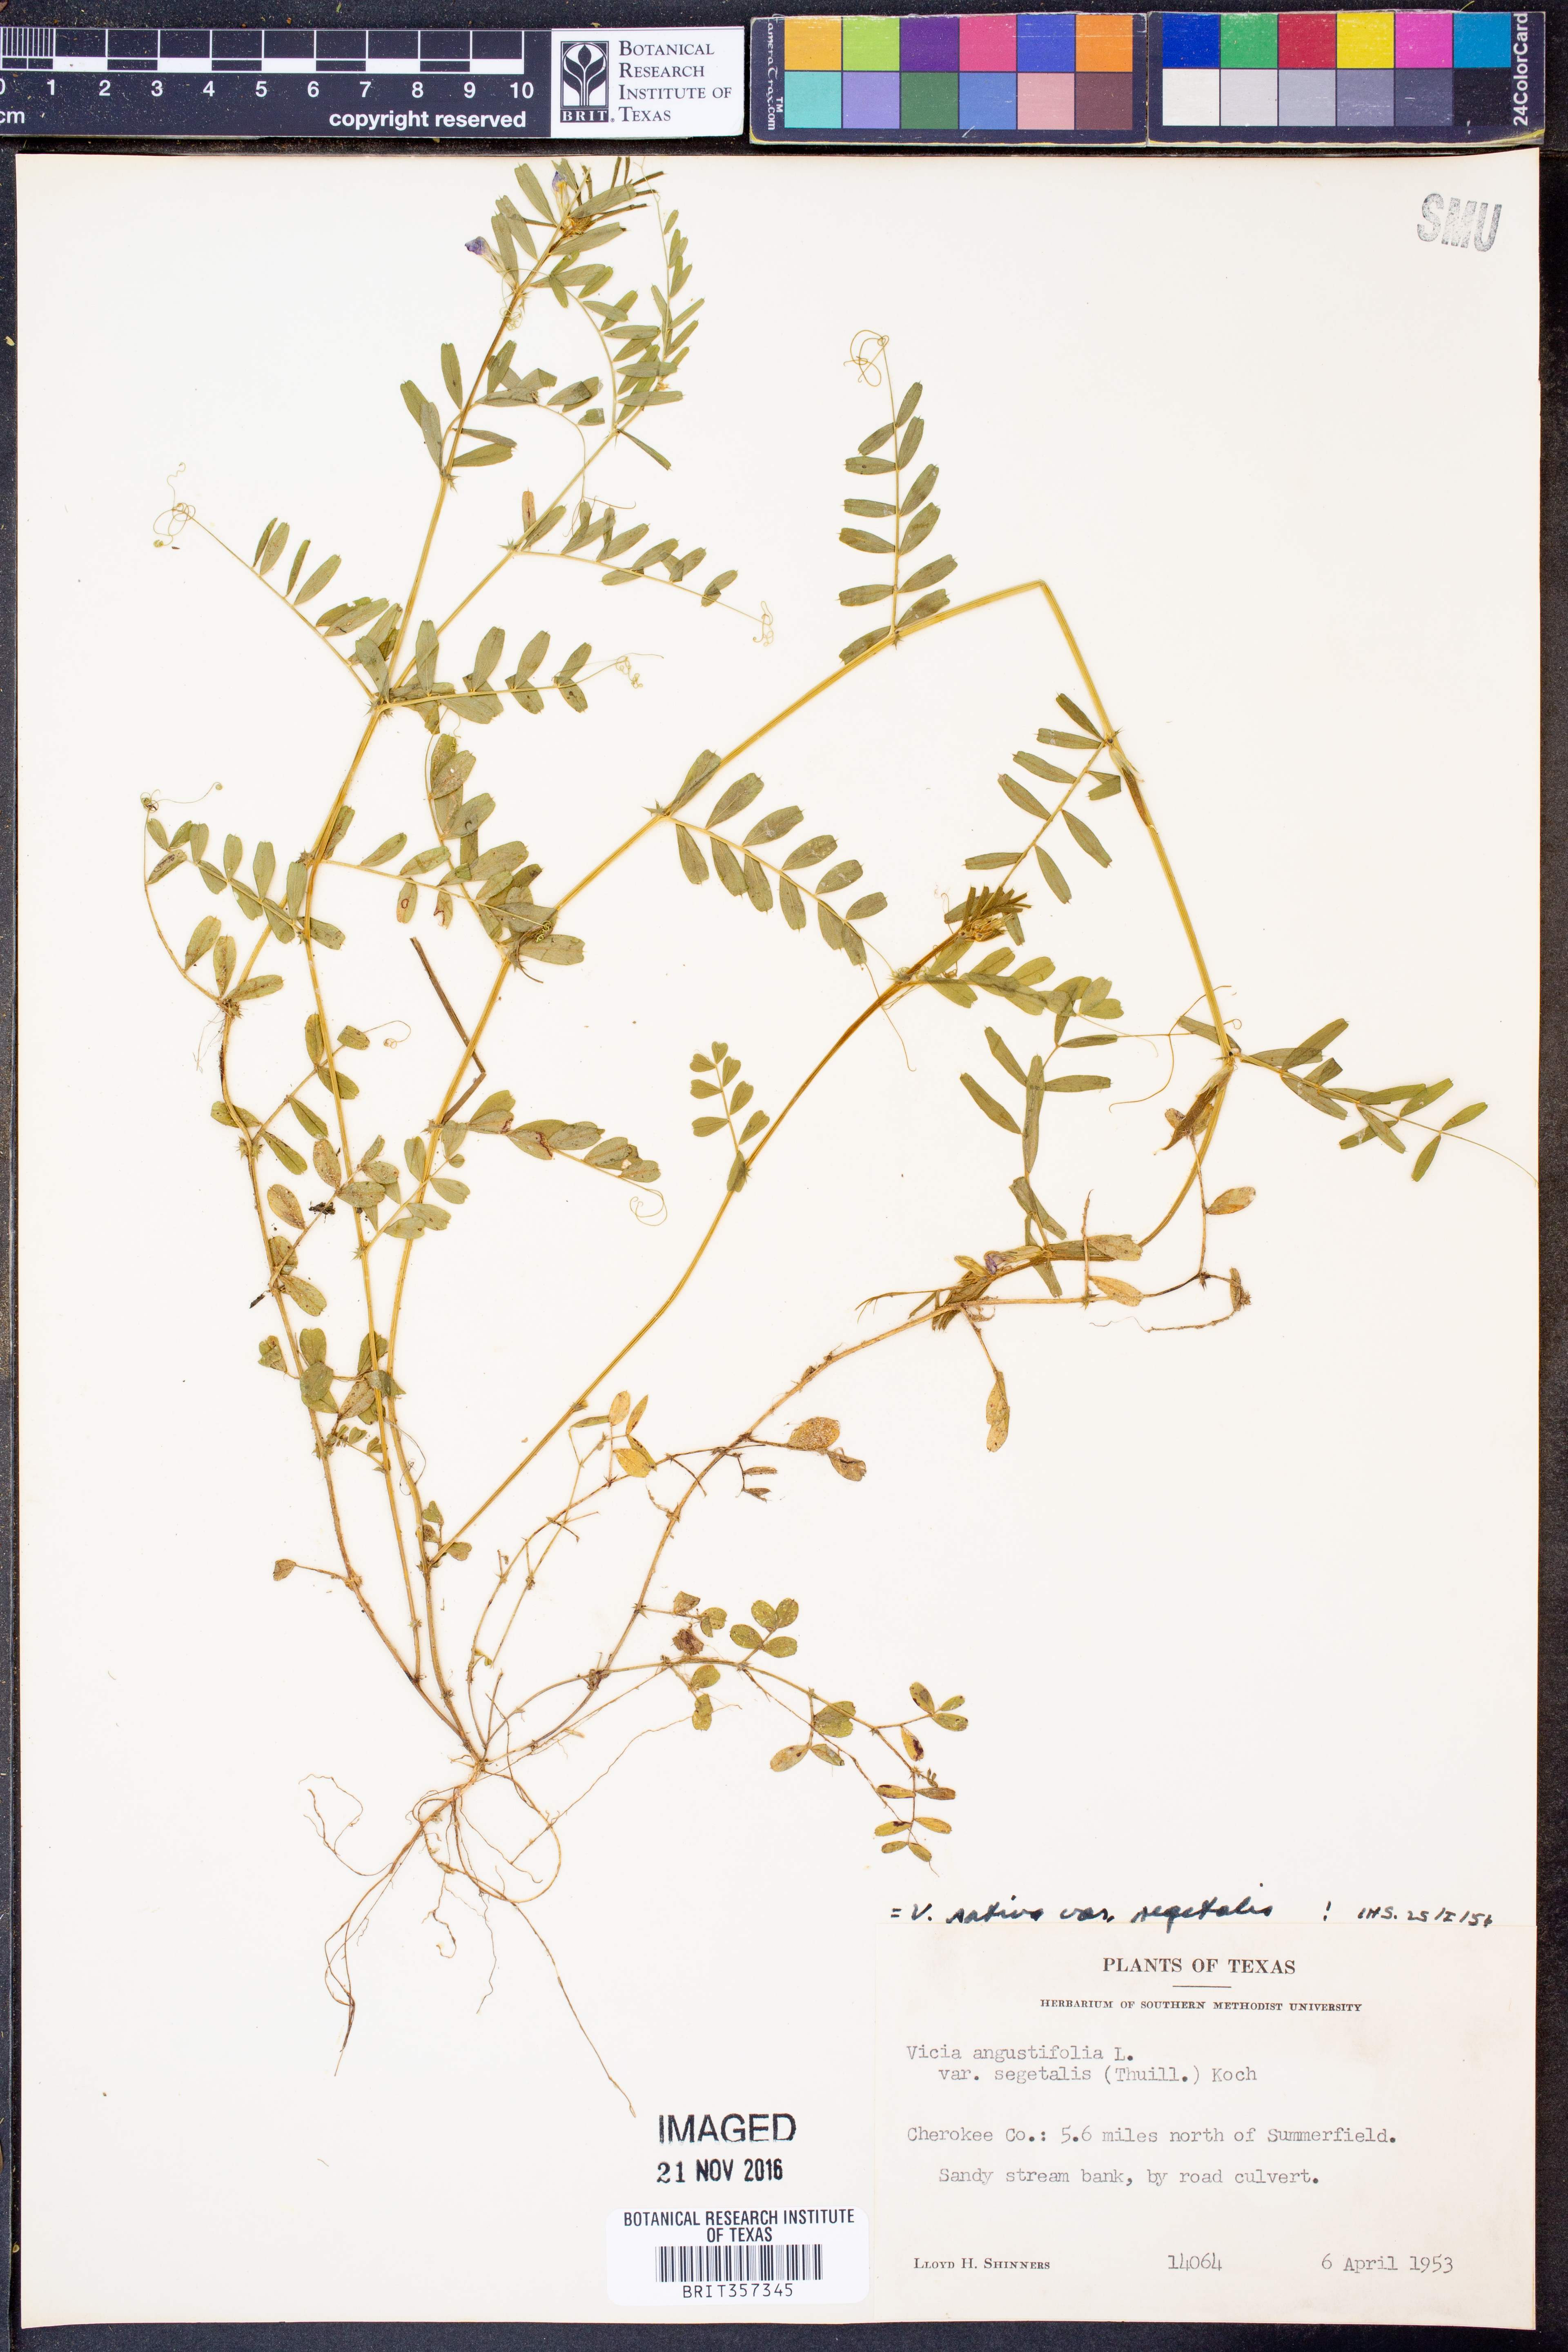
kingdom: Plantae
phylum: Tracheophyta
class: Magnoliopsida
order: Fabales
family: Fabaceae
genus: Vicia
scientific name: Vicia sativa
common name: Garden vetch
